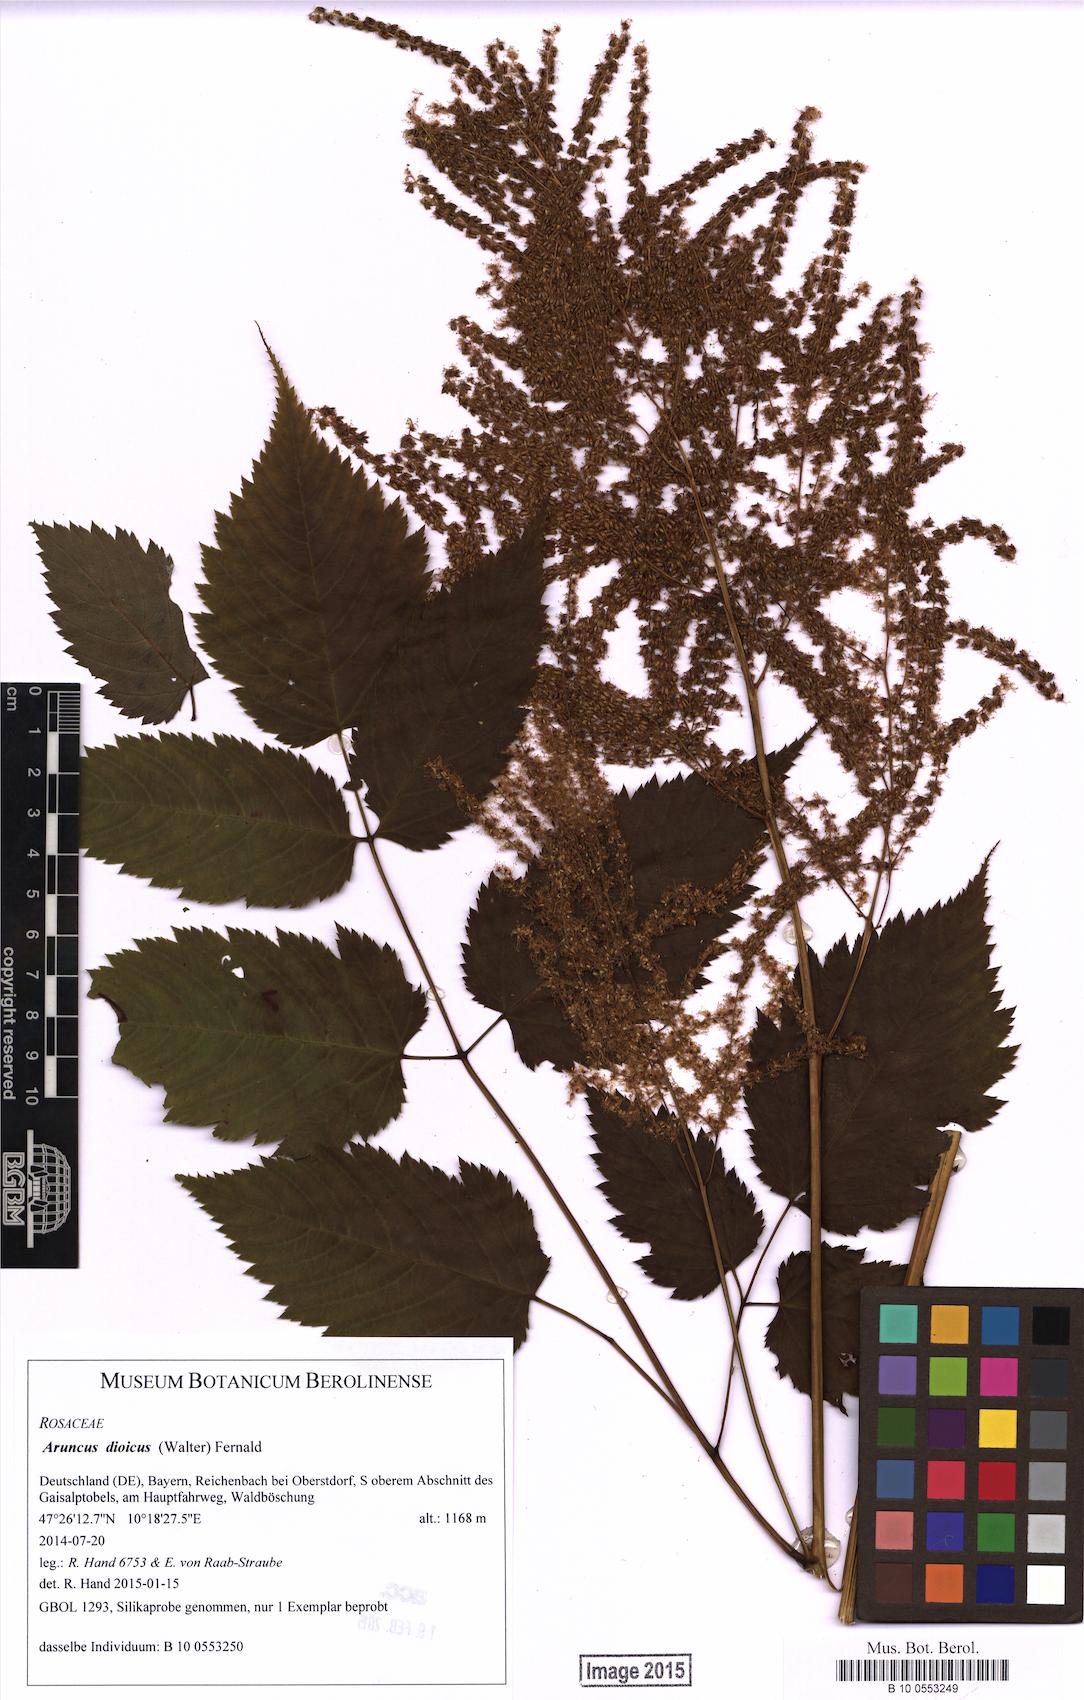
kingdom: Plantae
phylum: Tracheophyta
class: Magnoliopsida
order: Rosales
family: Rosaceae
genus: Aruncus
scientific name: Aruncus dioicus
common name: Buck's-beard
